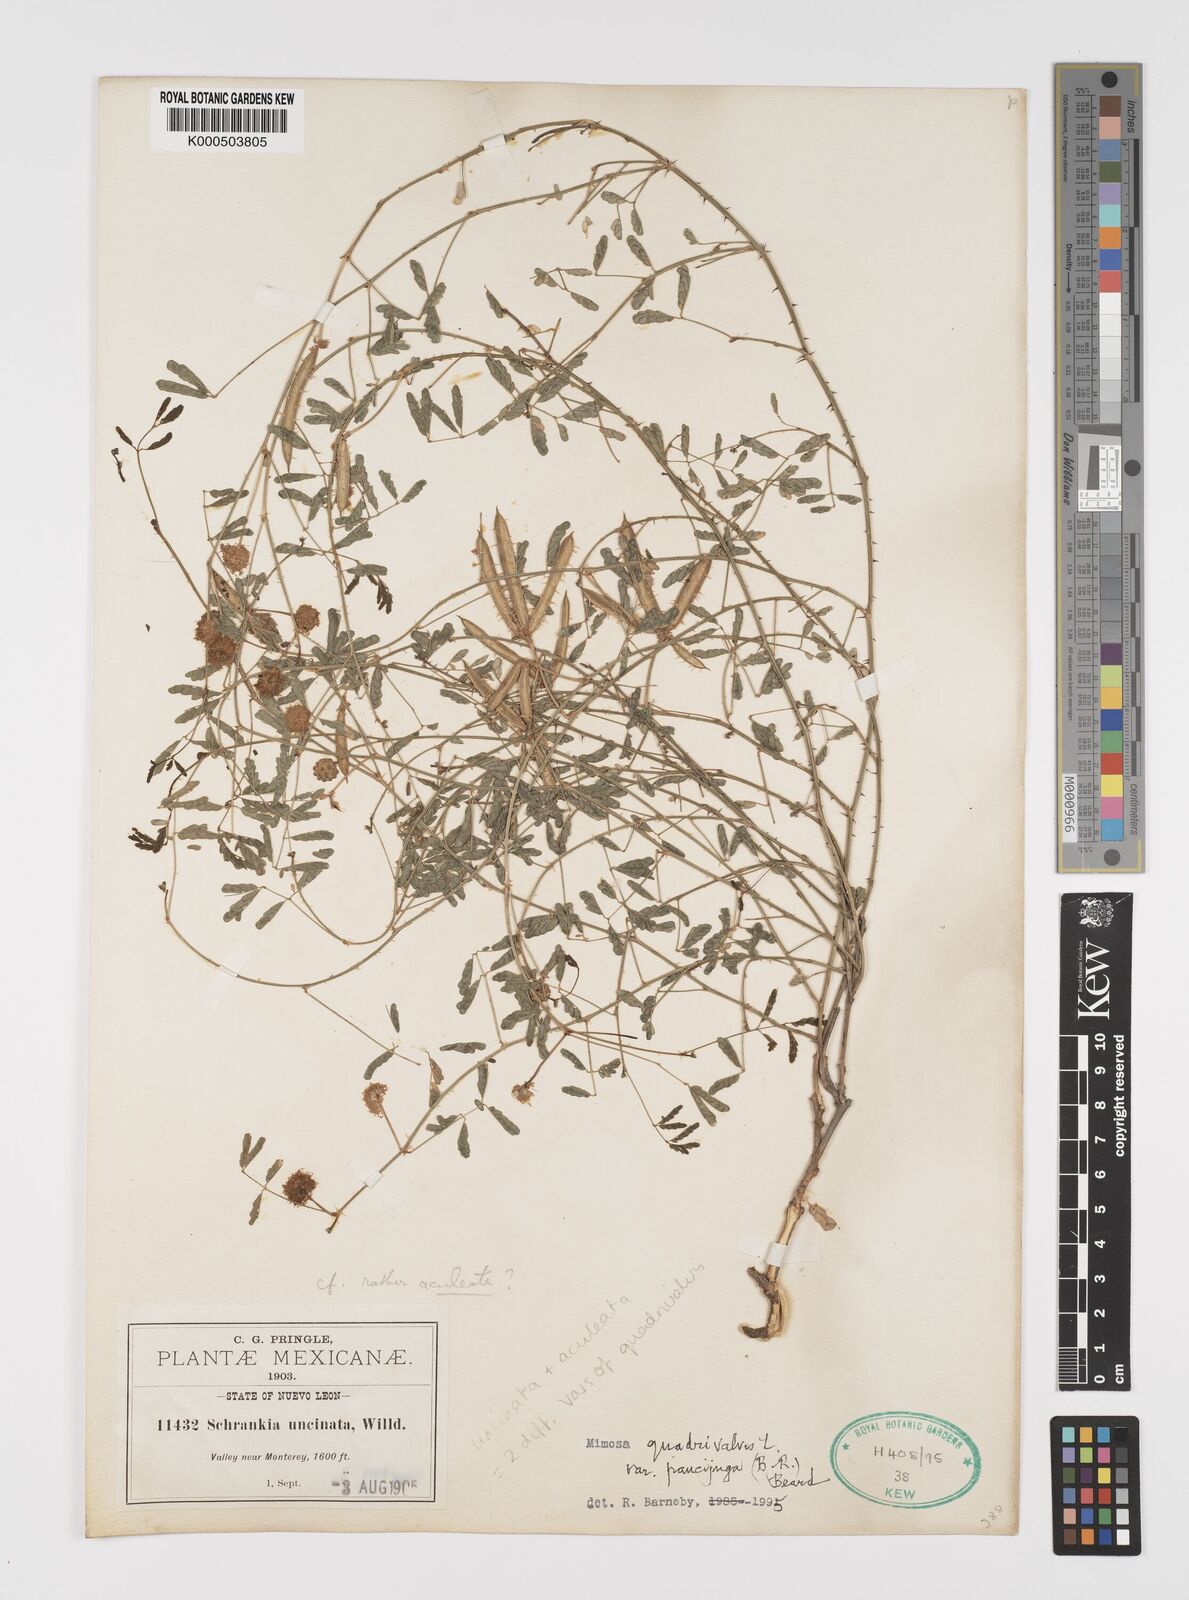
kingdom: Plantae
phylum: Tracheophyta
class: Magnoliopsida
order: Fabales
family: Fabaceae
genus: Mimosa
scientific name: Mimosa quadrivalvis
